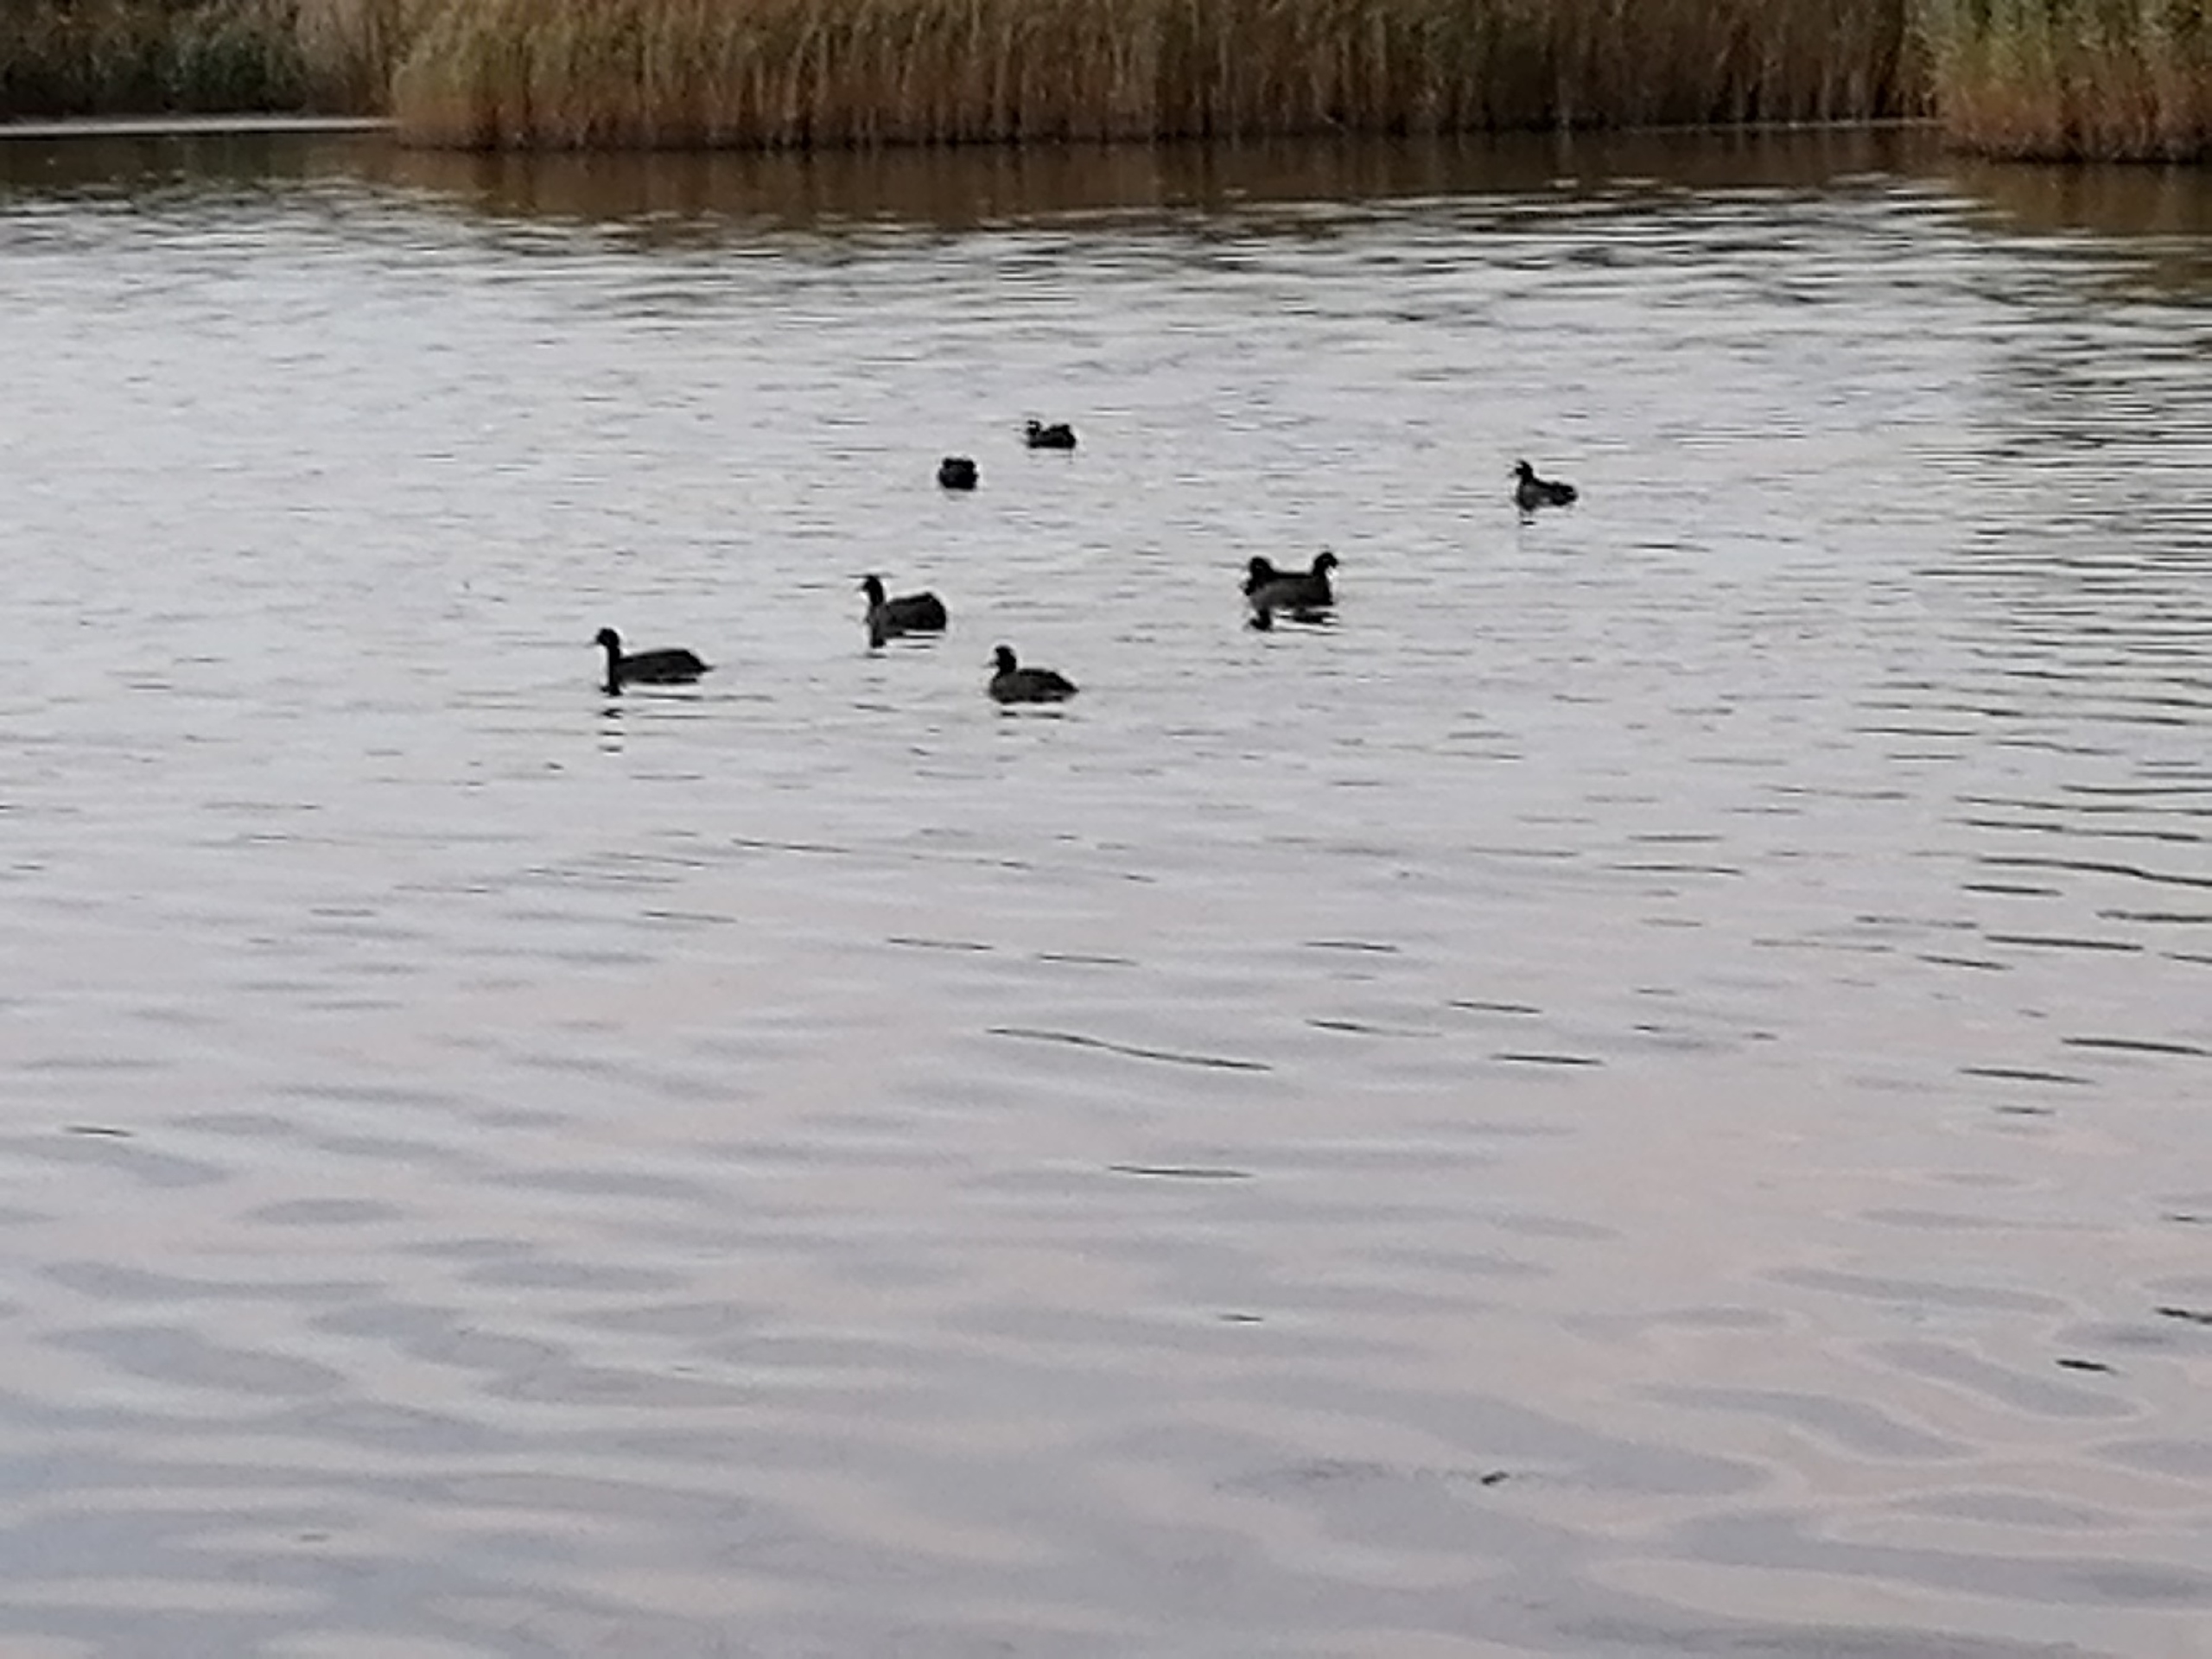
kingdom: Animalia
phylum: Chordata
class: Aves
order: Gruiformes
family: Rallidae
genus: Fulica
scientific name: Fulica atra
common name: Blishøne
